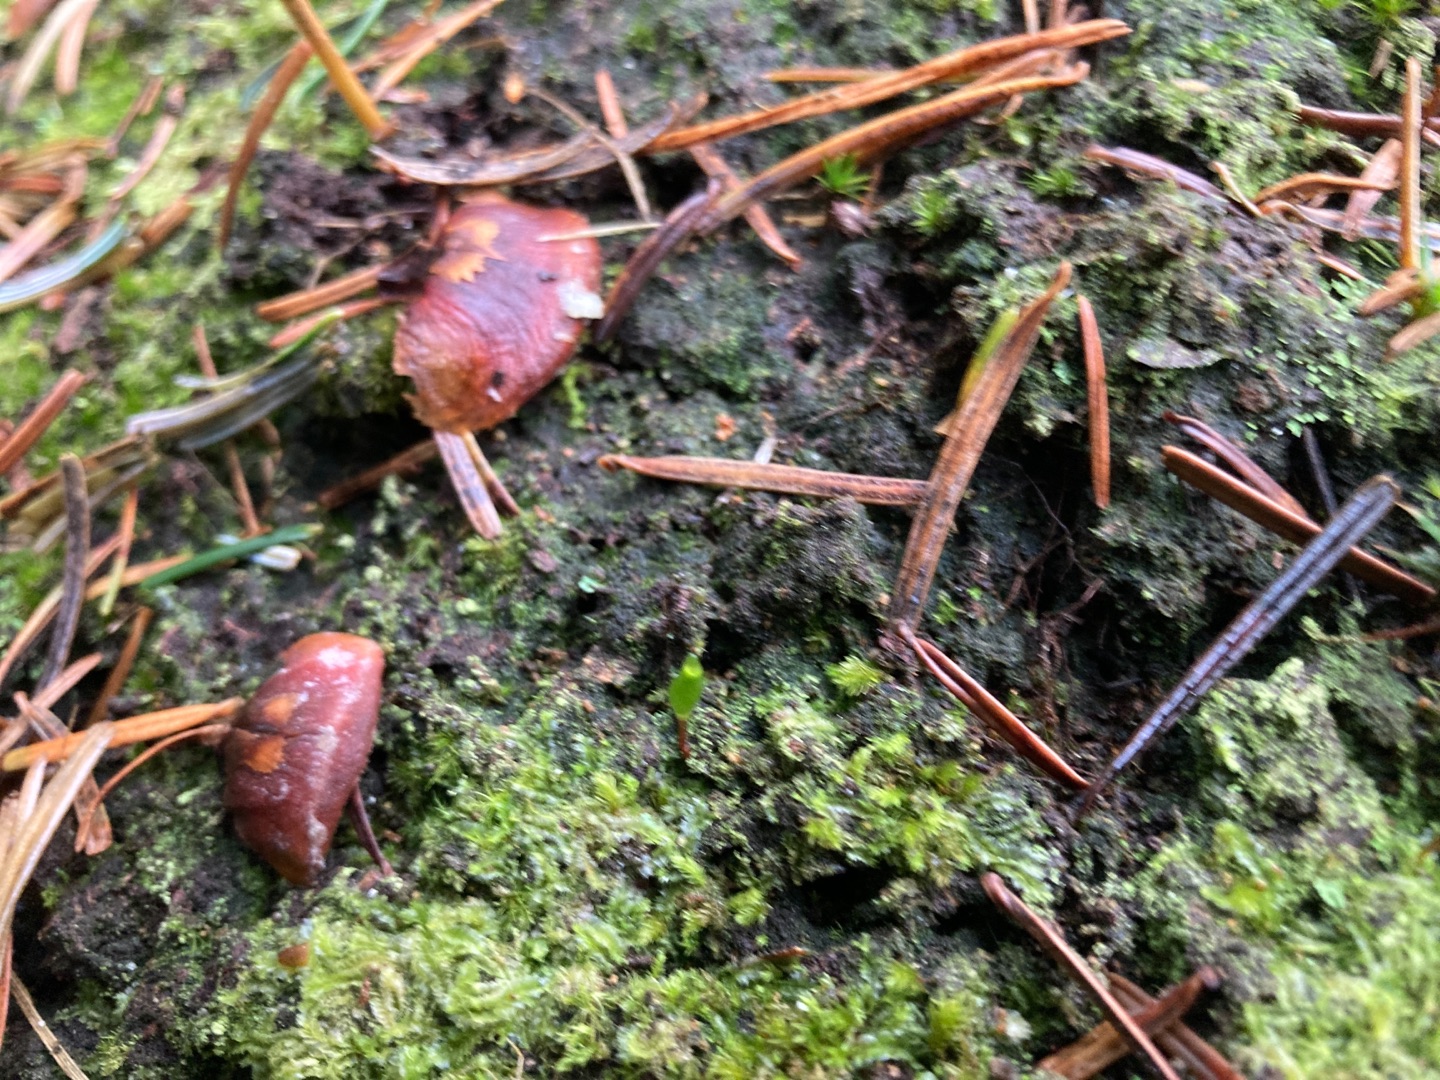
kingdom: Plantae
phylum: Bryophyta
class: Bryopsida
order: Buxbaumiales
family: Buxbaumiaceae
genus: Buxbaumia
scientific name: Buxbaumia viridis
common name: Grøn buxbaumia
